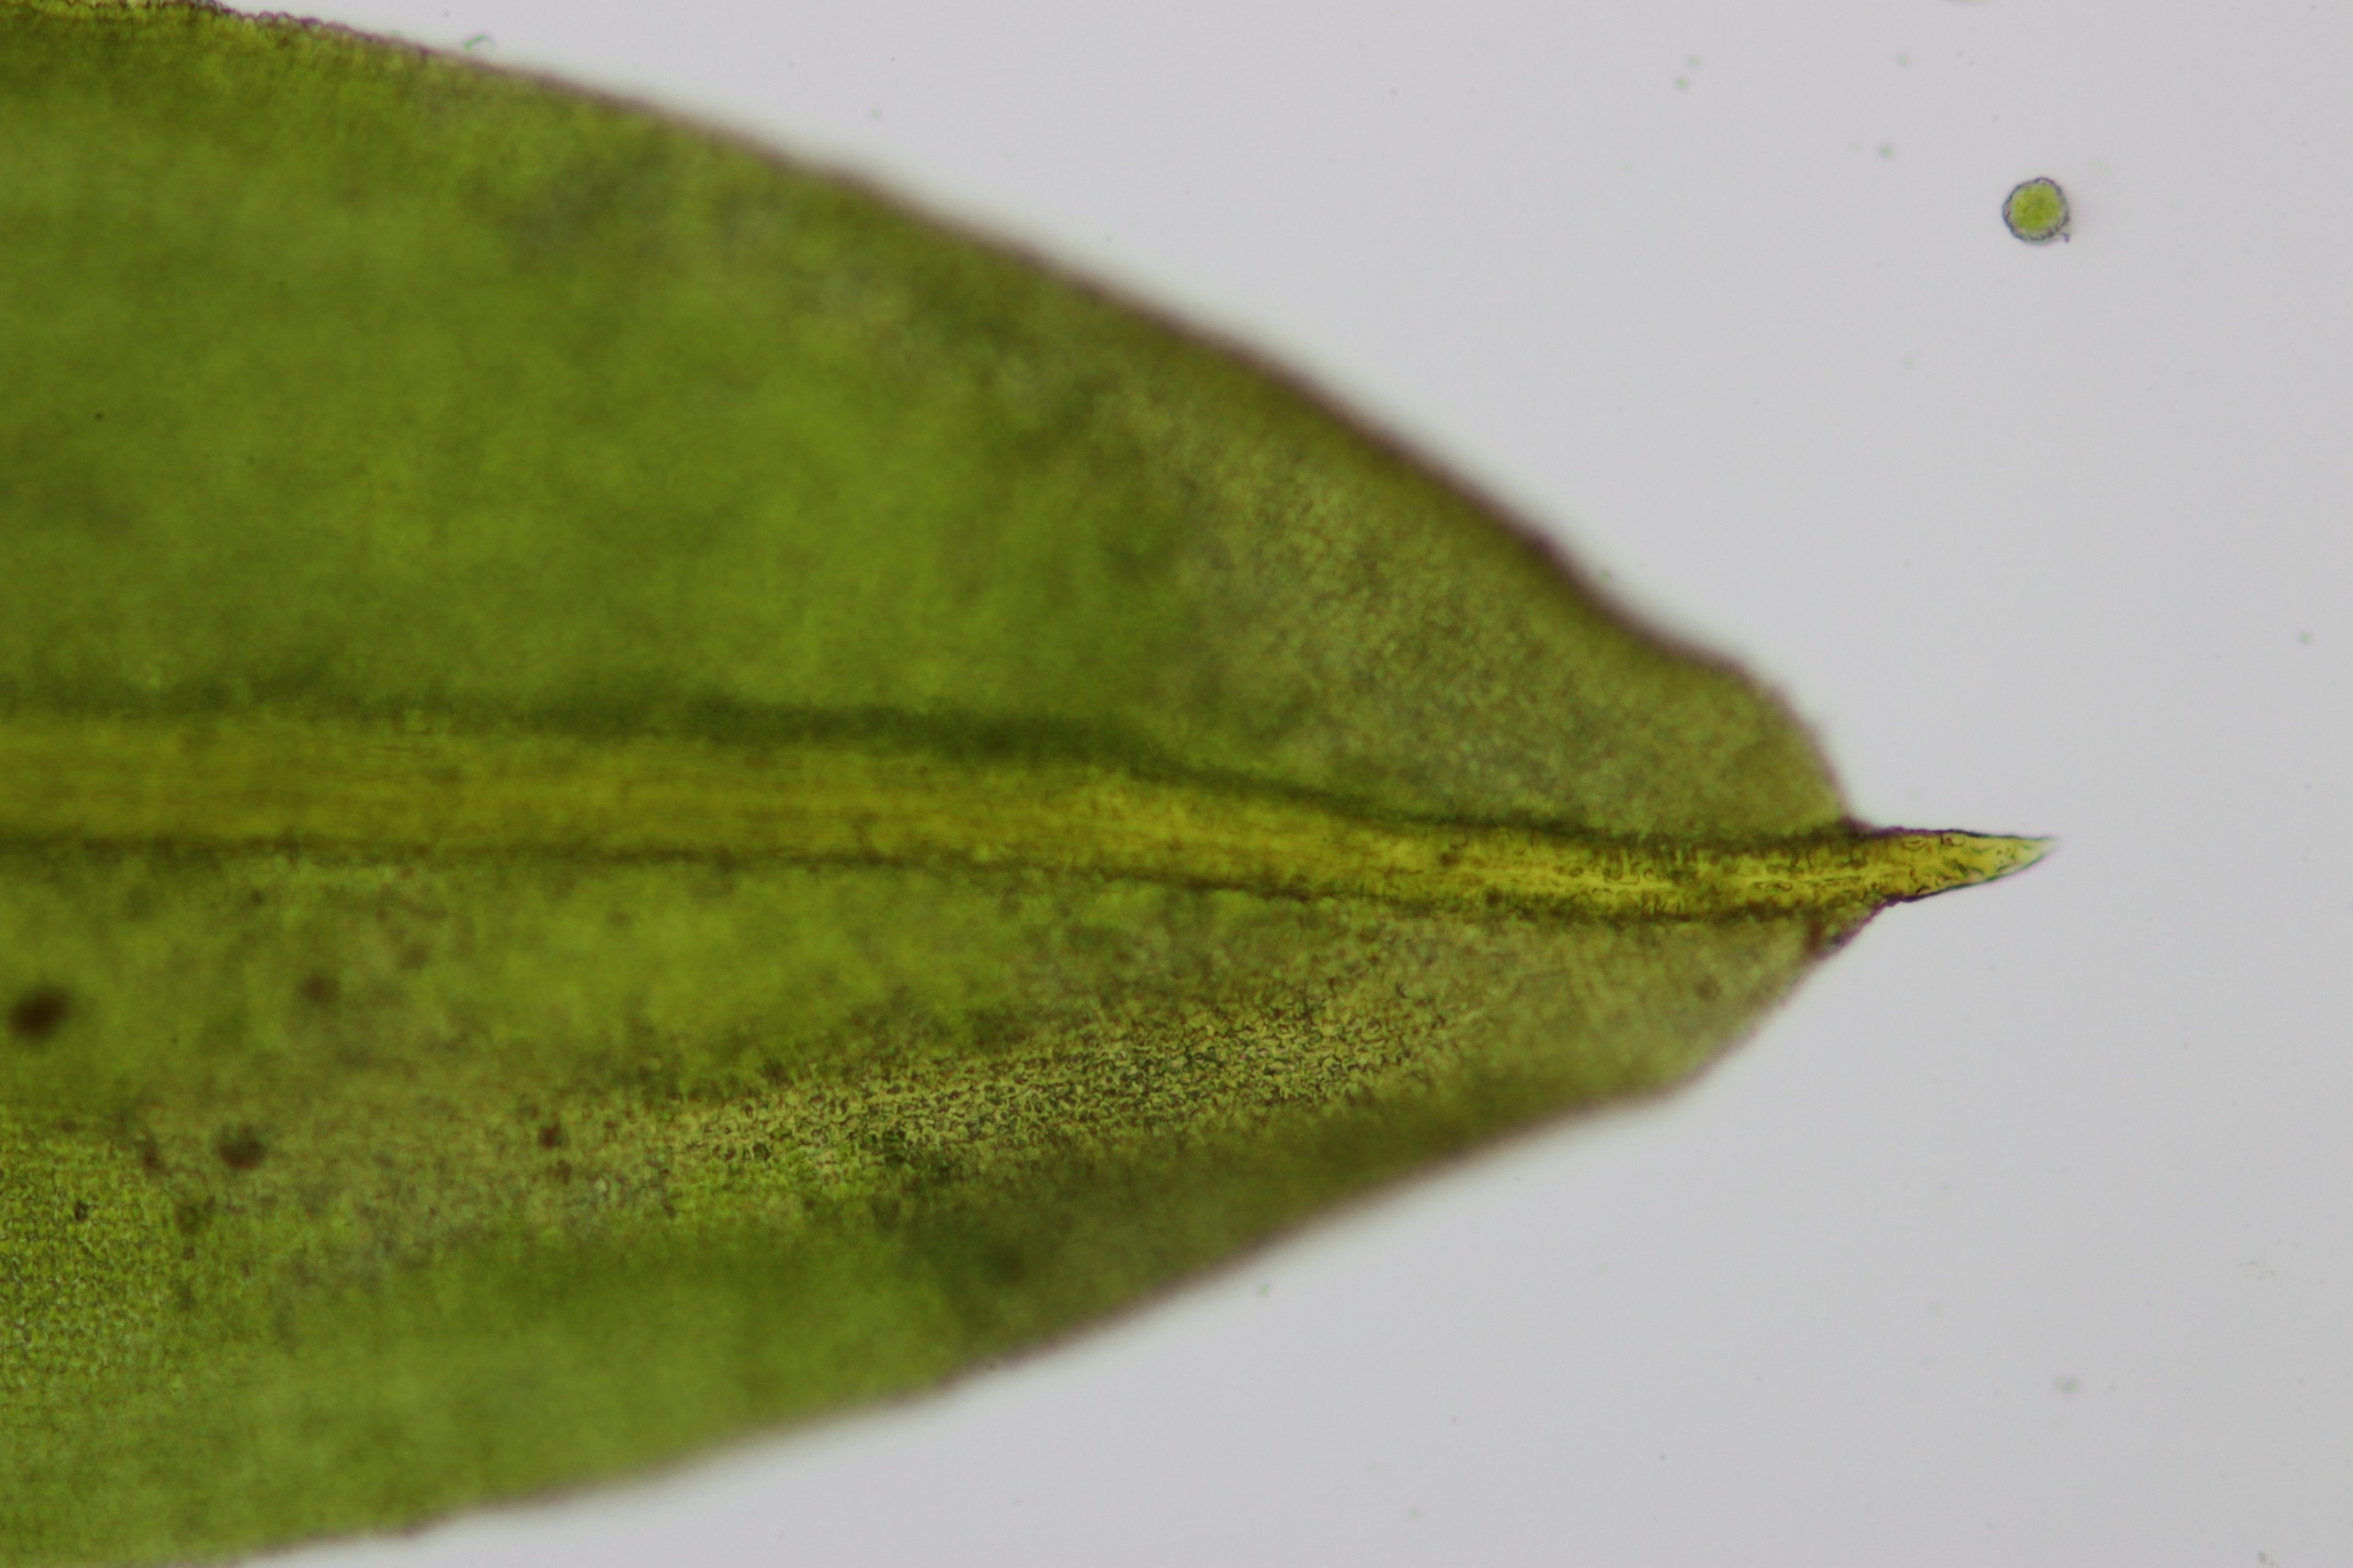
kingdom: Plantae
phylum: Bryophyta
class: Bryopsida
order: Pottiales
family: Pottiaceae
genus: Trichostomum
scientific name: Trichostomum brachydontium
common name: Kyst-hårmund
